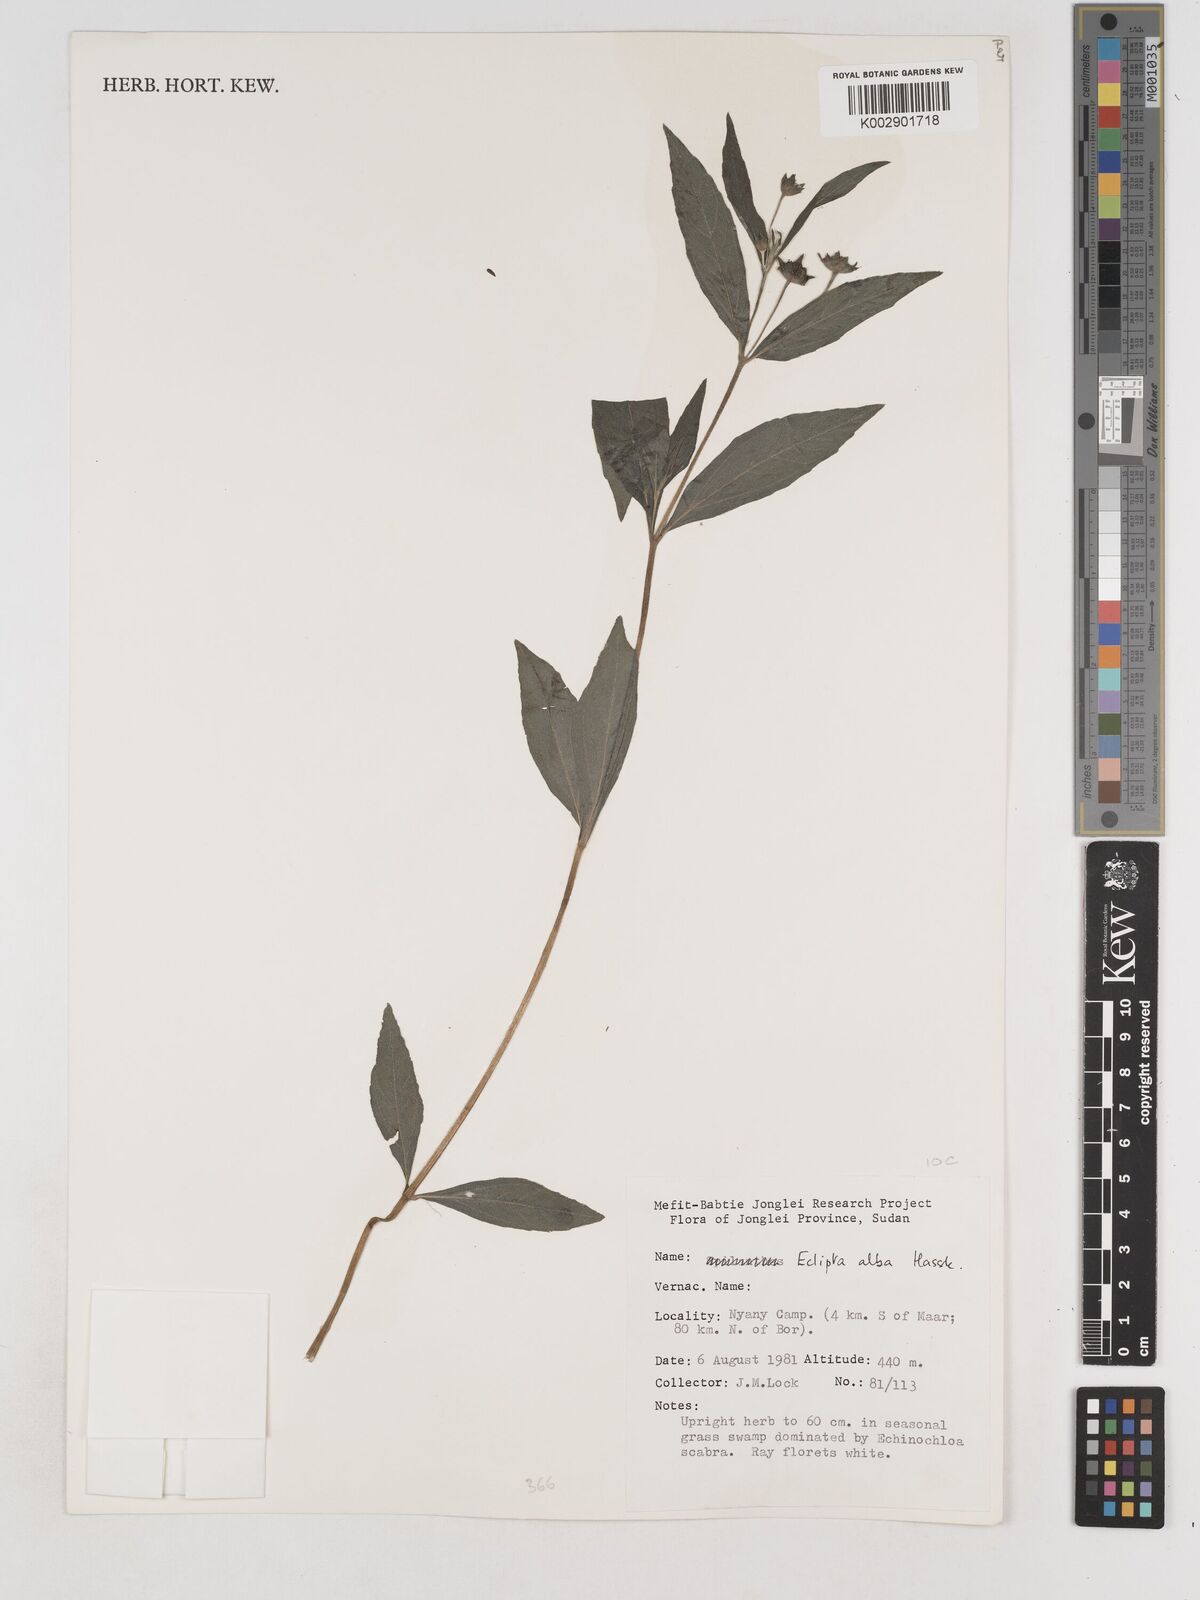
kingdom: Plantae
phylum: Tracheophyta
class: Magnoliopsida
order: Asterales
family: Asteraceae
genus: Eclipta
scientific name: Eclipta prostrata
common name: False daisy
